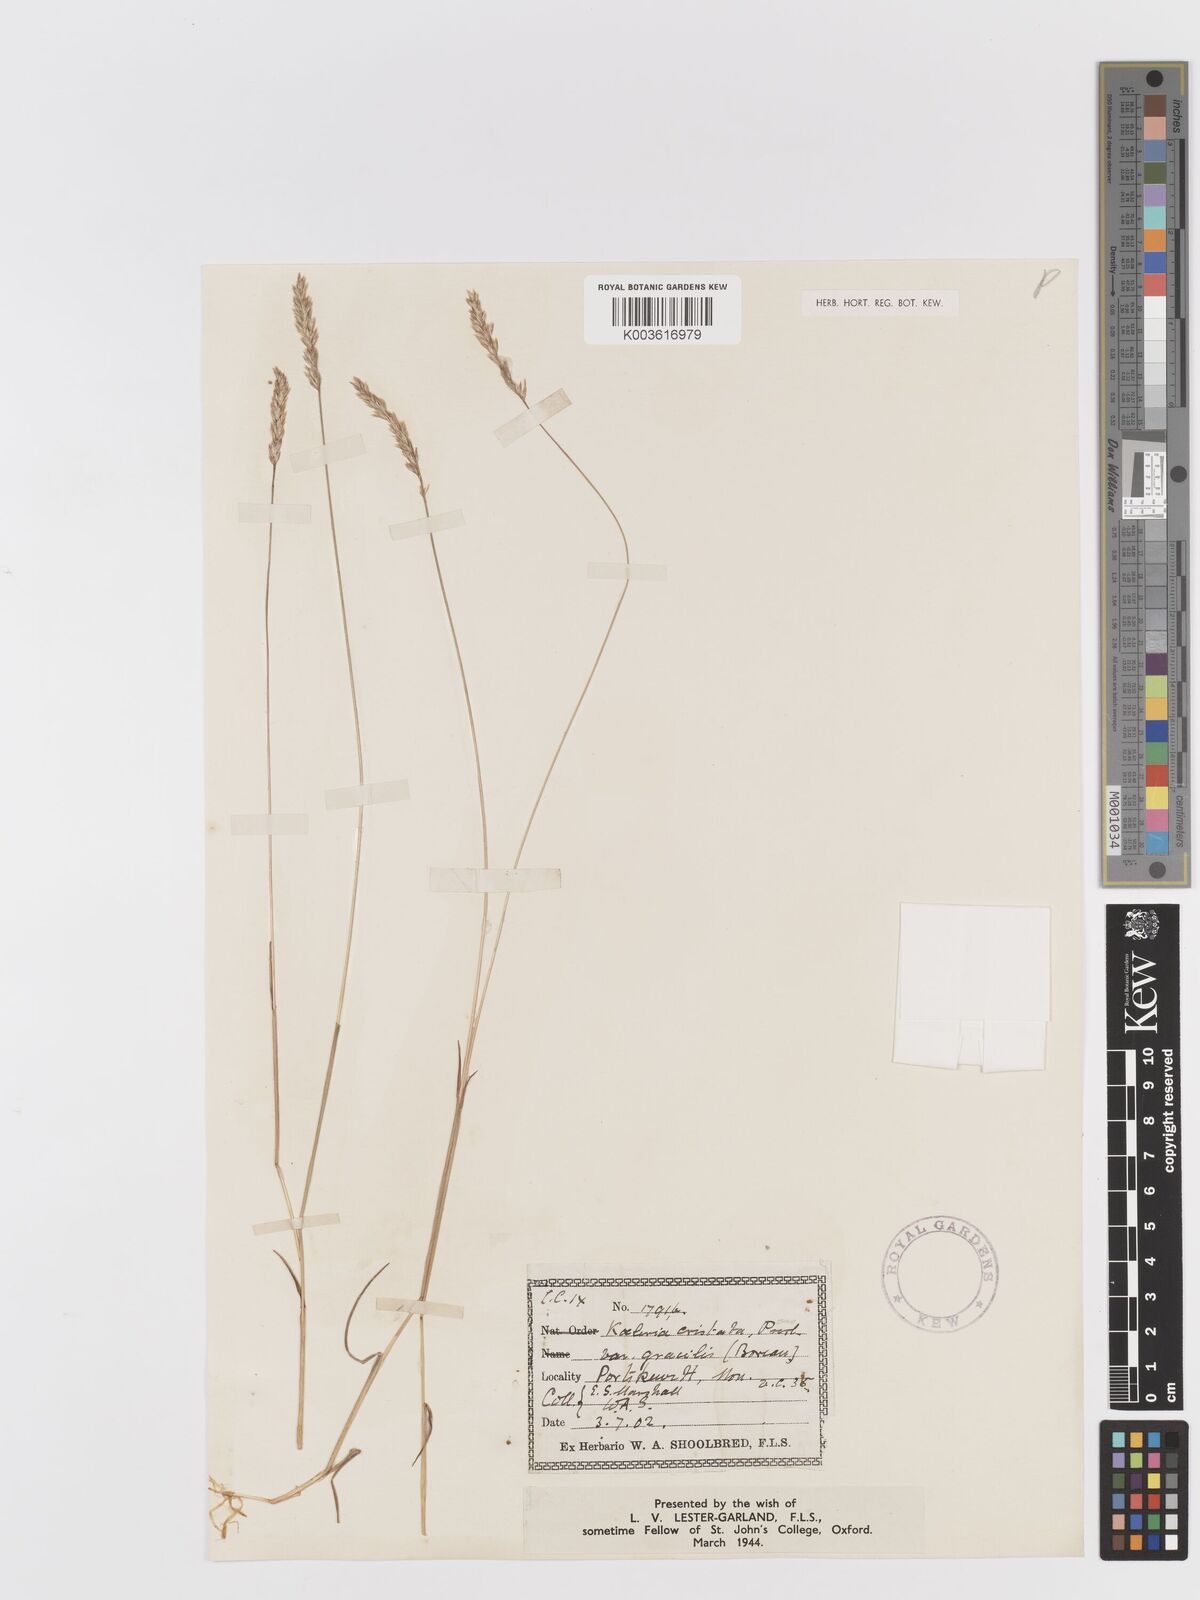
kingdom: Plantae
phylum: Tracheophyta
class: Liliopsida
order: Poales
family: Poaceae
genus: Koeleria
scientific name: Koeleria macrantha
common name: Crested hair-grass
